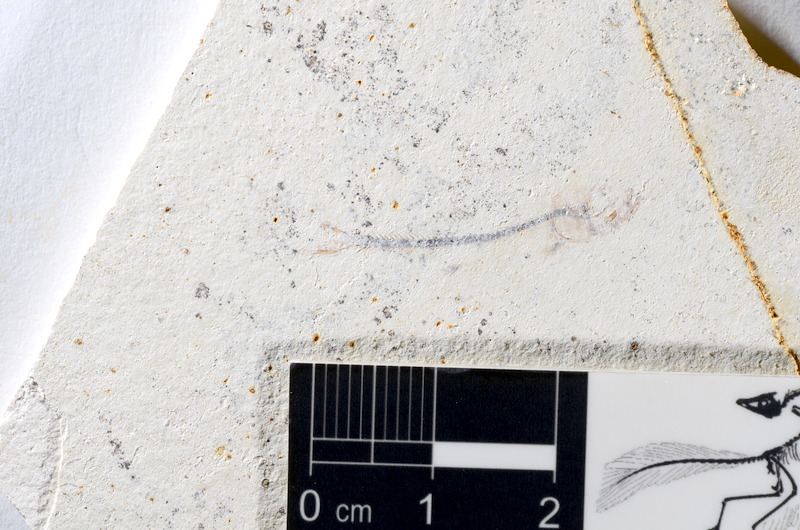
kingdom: Animalia
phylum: Chordata
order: Salmoniformes
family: Orthogonikleithridae
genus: Orthogonikleithrus
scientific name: Orthogonikleithrus hoelli
